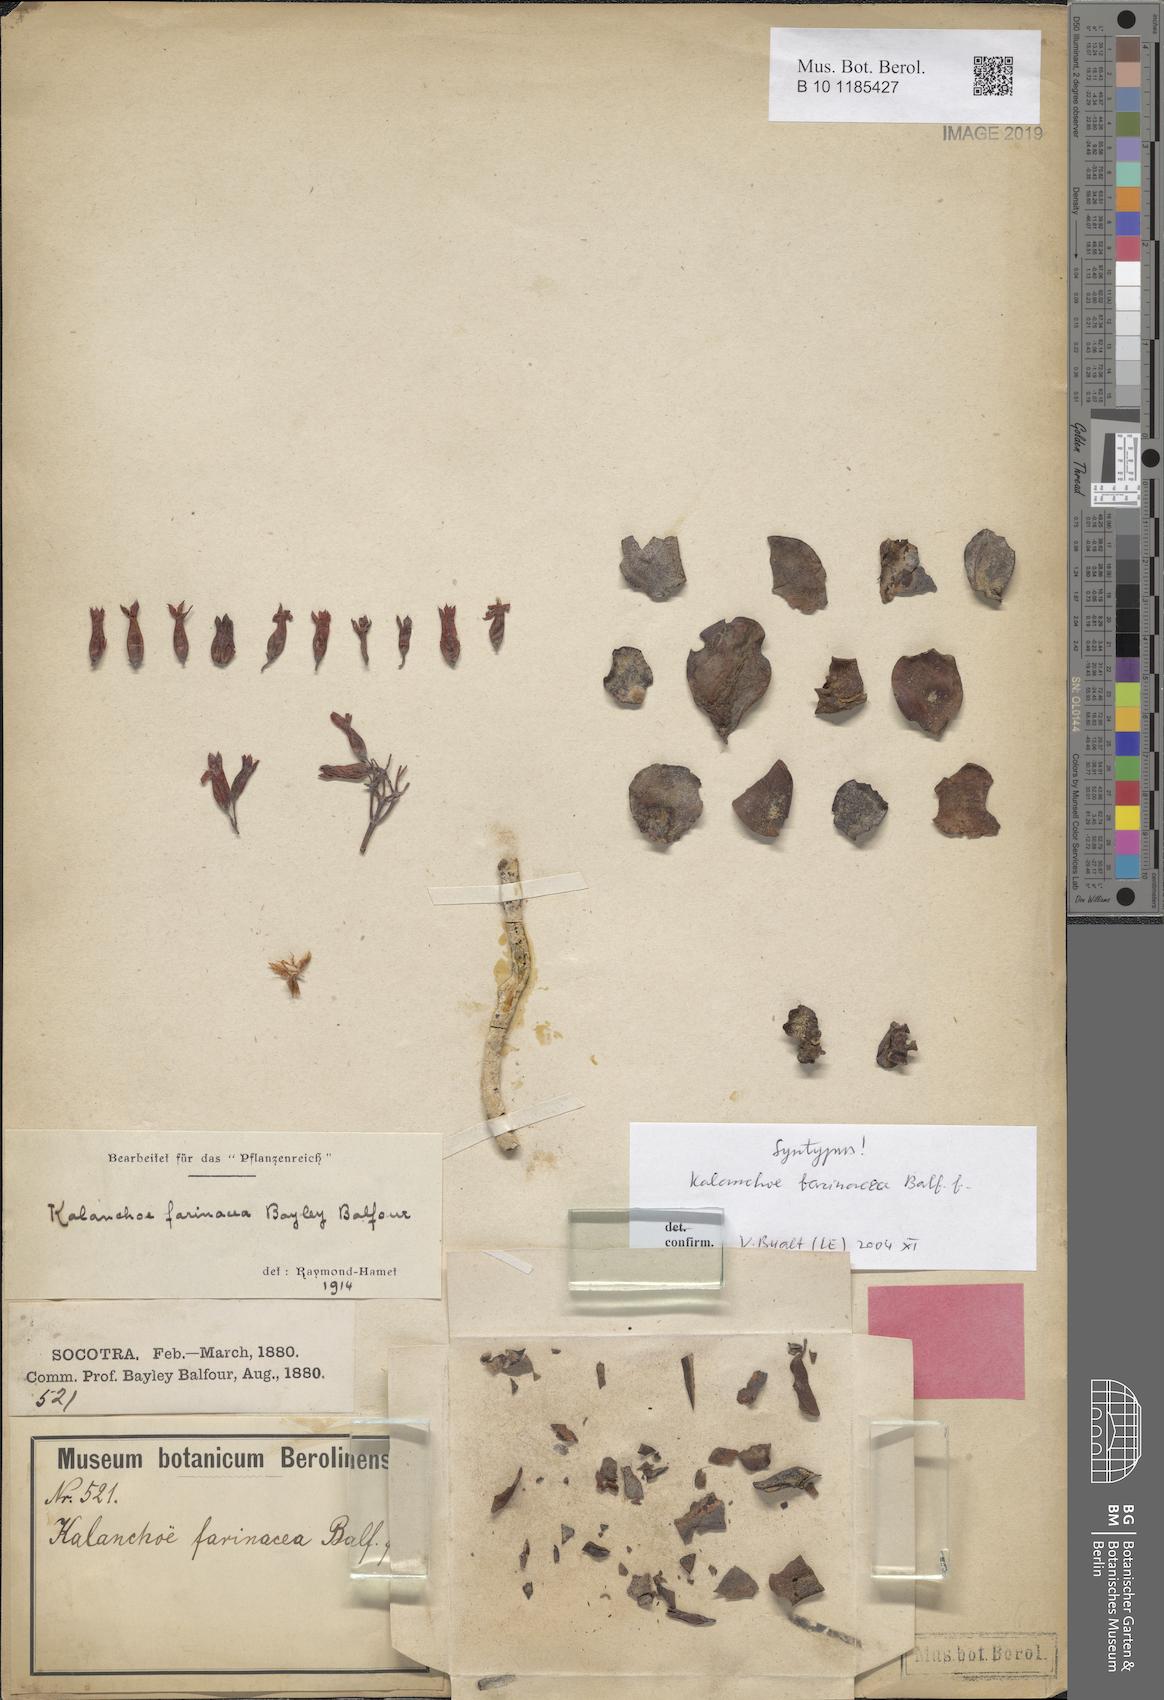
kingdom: Plantae
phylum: Tracheophyta
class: Magnoliopsida
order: Saxifragales
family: Crassulaceae
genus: Kalanchoe
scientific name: Kalanchoe farinacea
